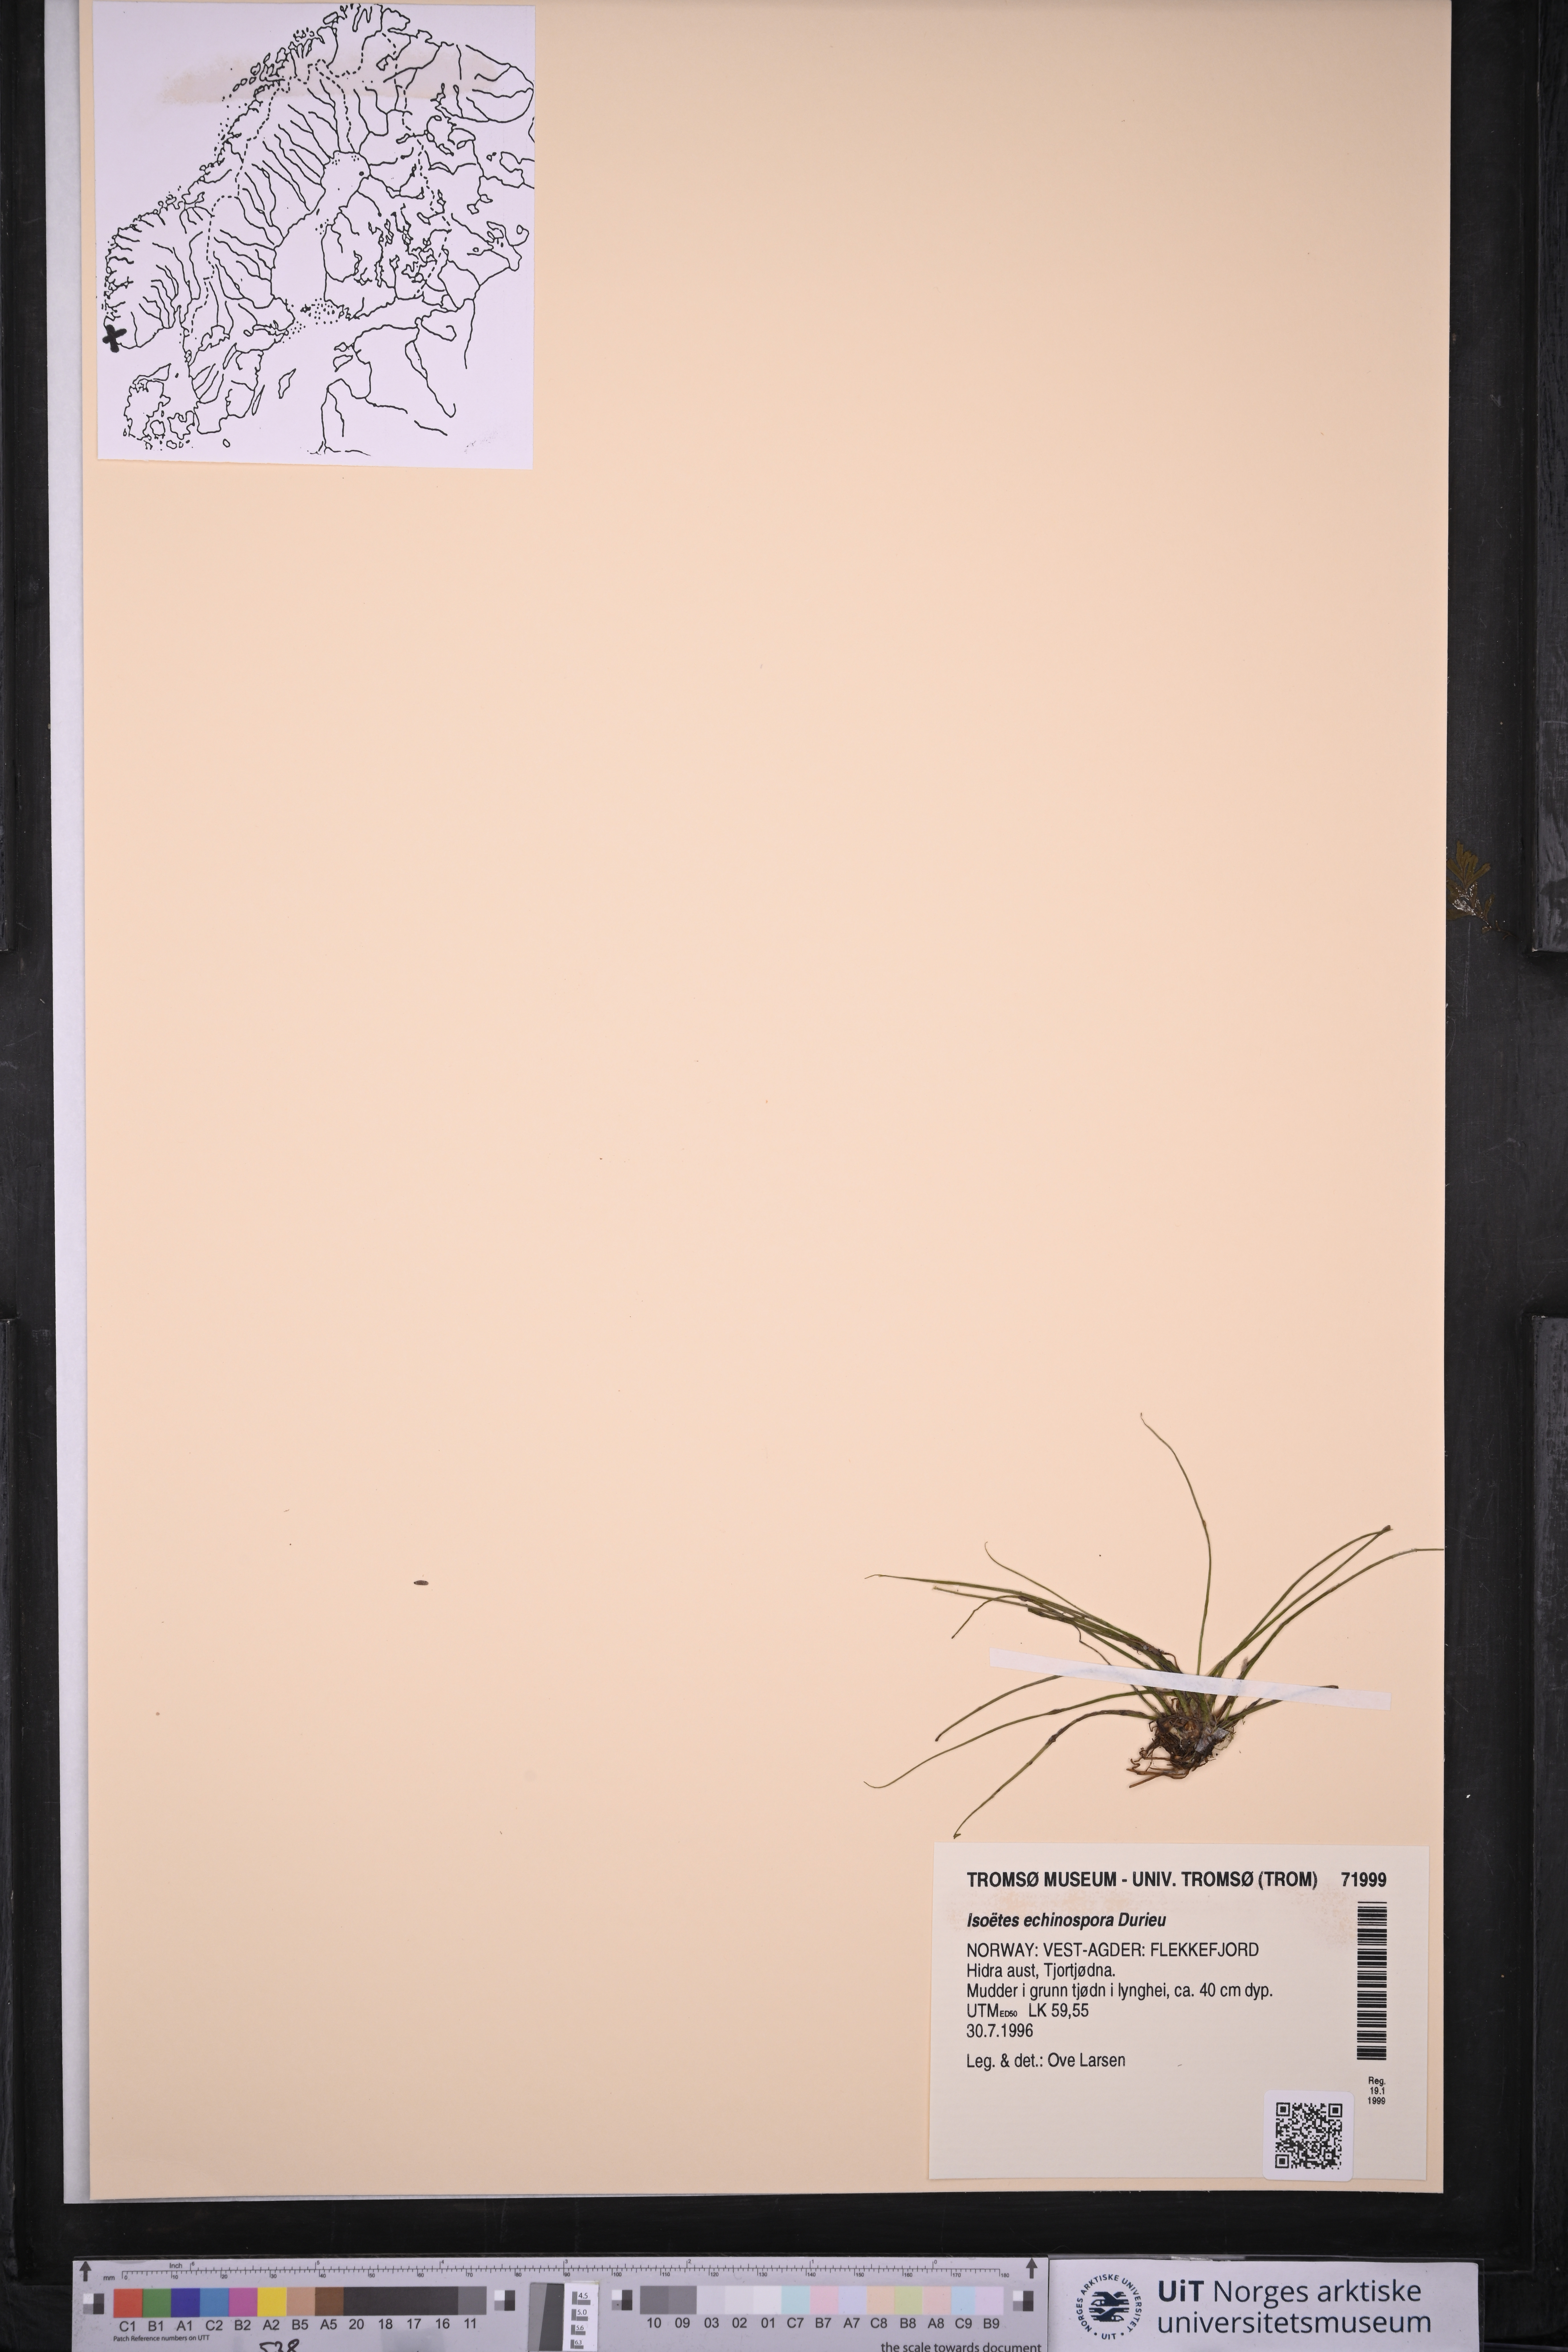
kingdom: Plantae
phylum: Tracheophyta
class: Lycopodiopsida
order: Isoetales
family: Isoetaceae
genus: Isoetes
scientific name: Isoetes echinospora
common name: Spring quillwort
